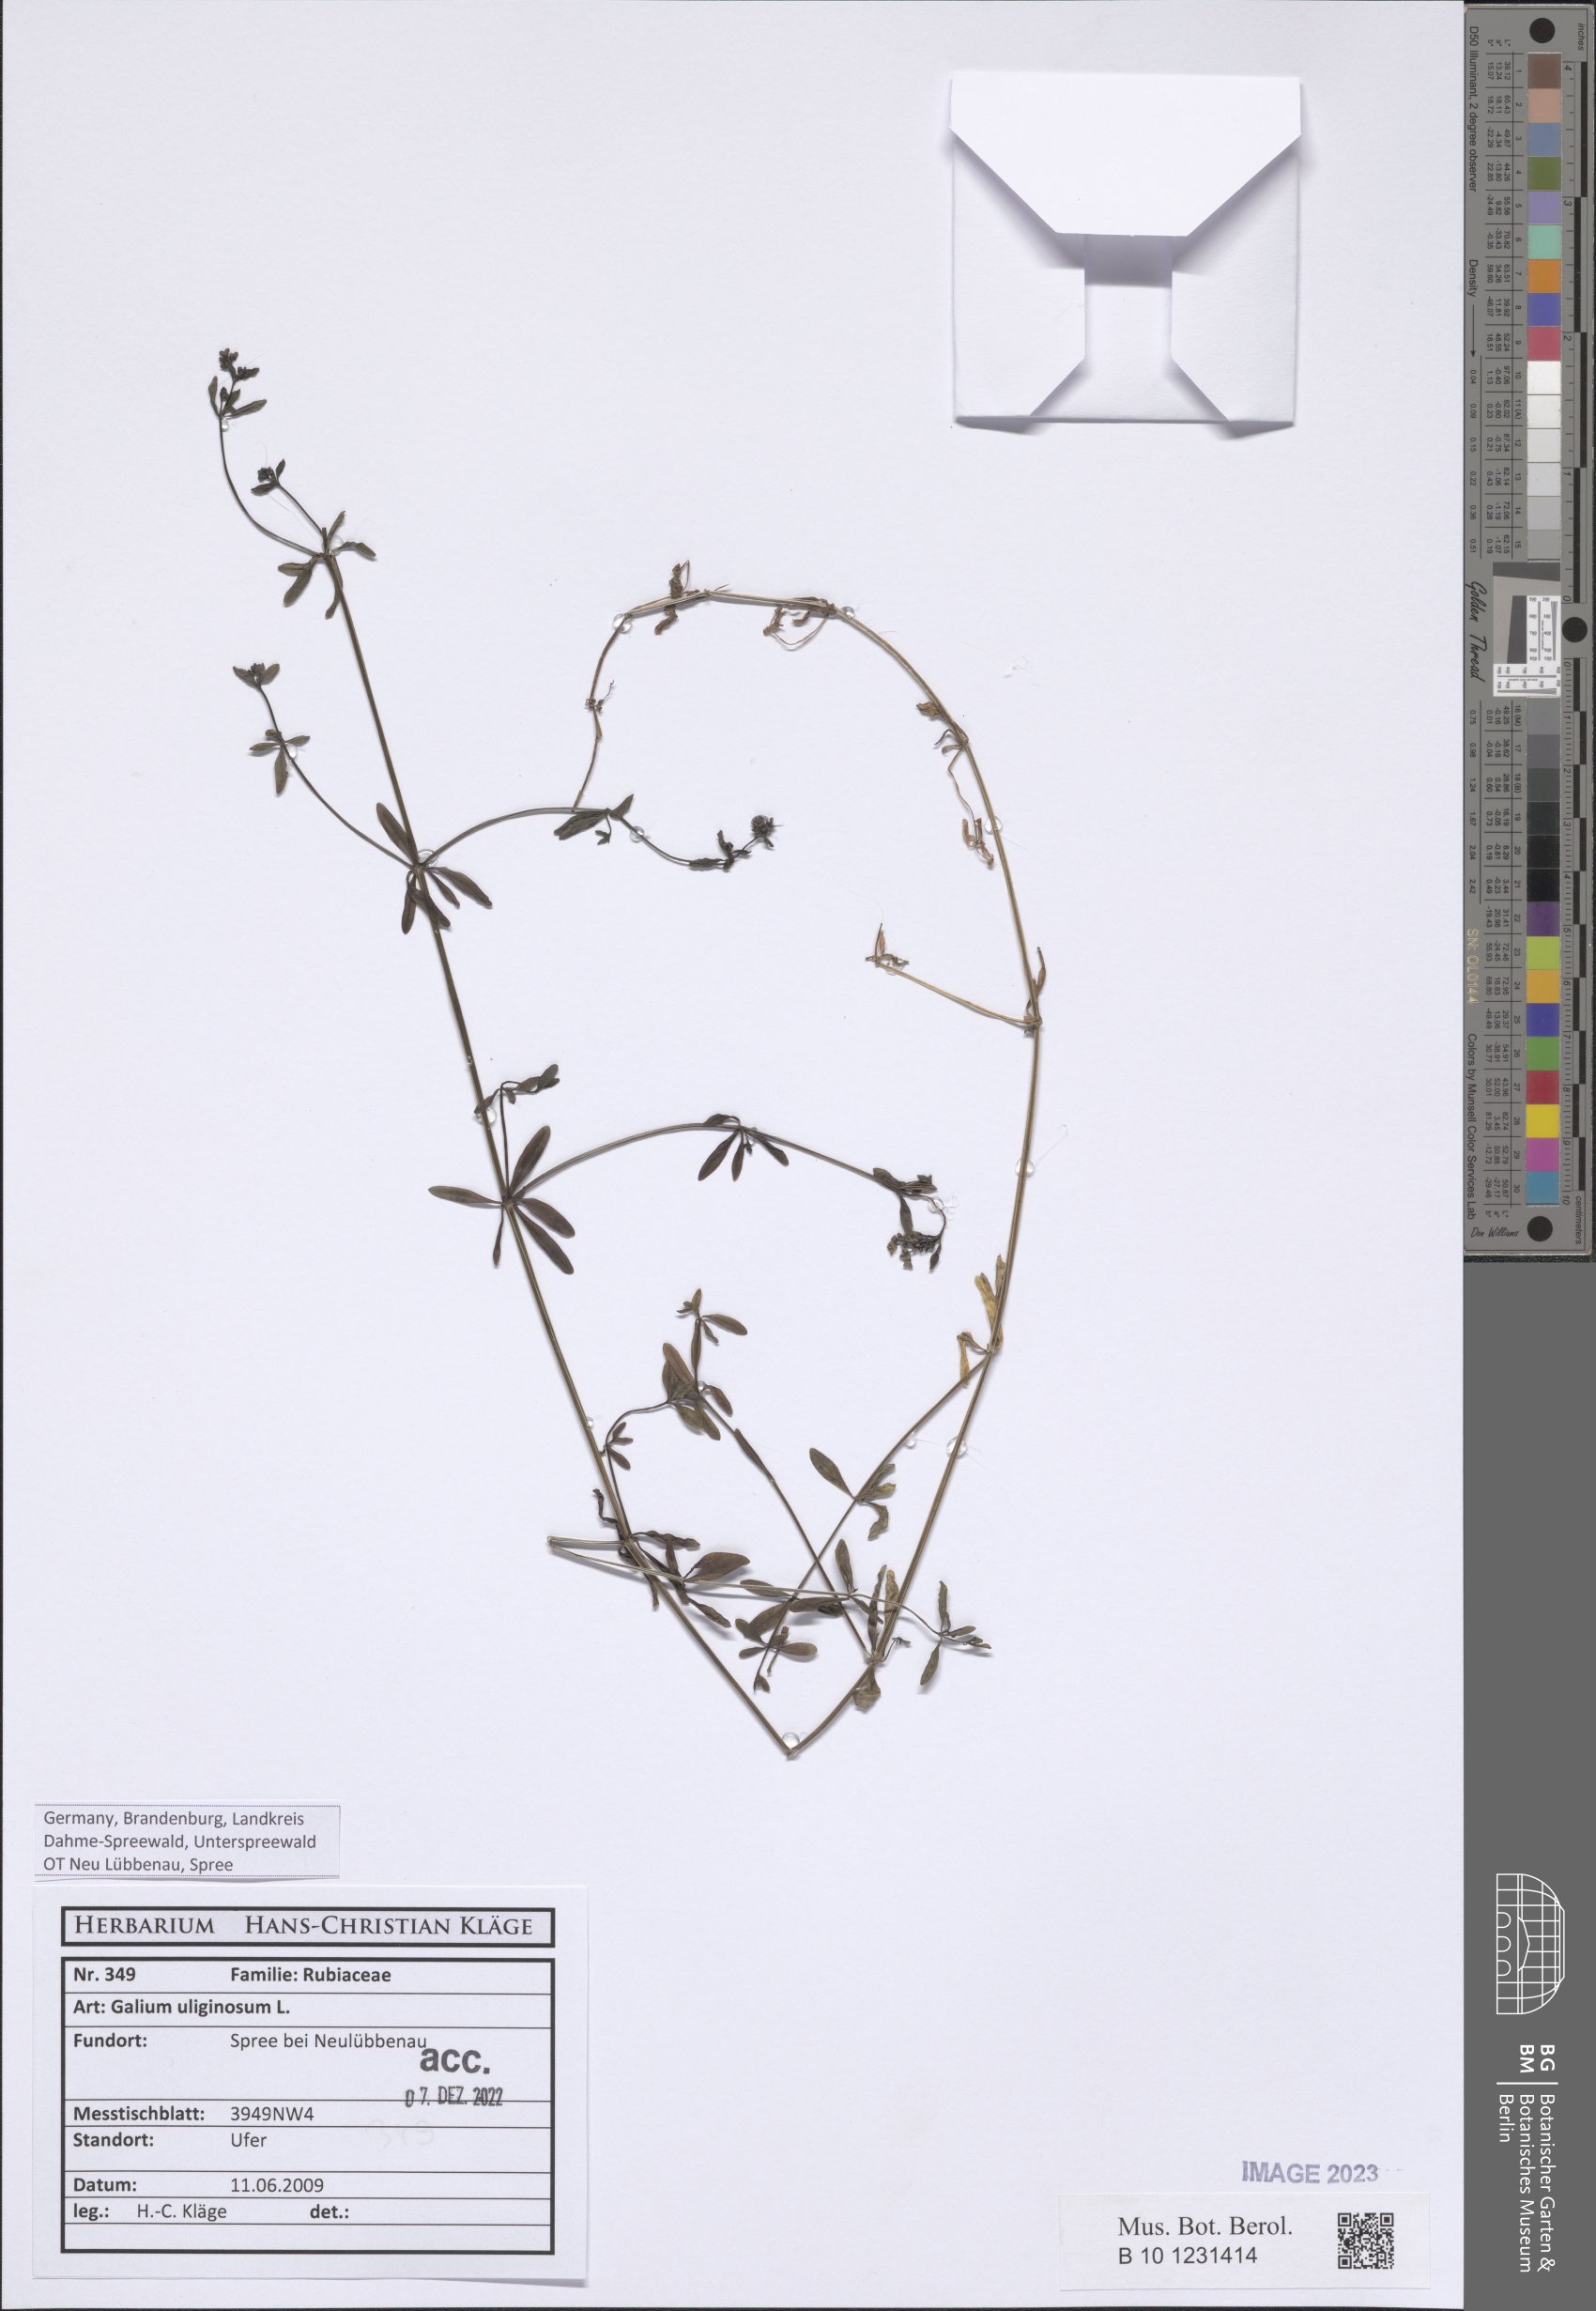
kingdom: Plantae
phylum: Tracheophyta
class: Magnoliopsida
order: Gentianales
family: Rubiaceae
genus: Galium
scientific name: Galium uliginosum
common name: Fen bedstraw
